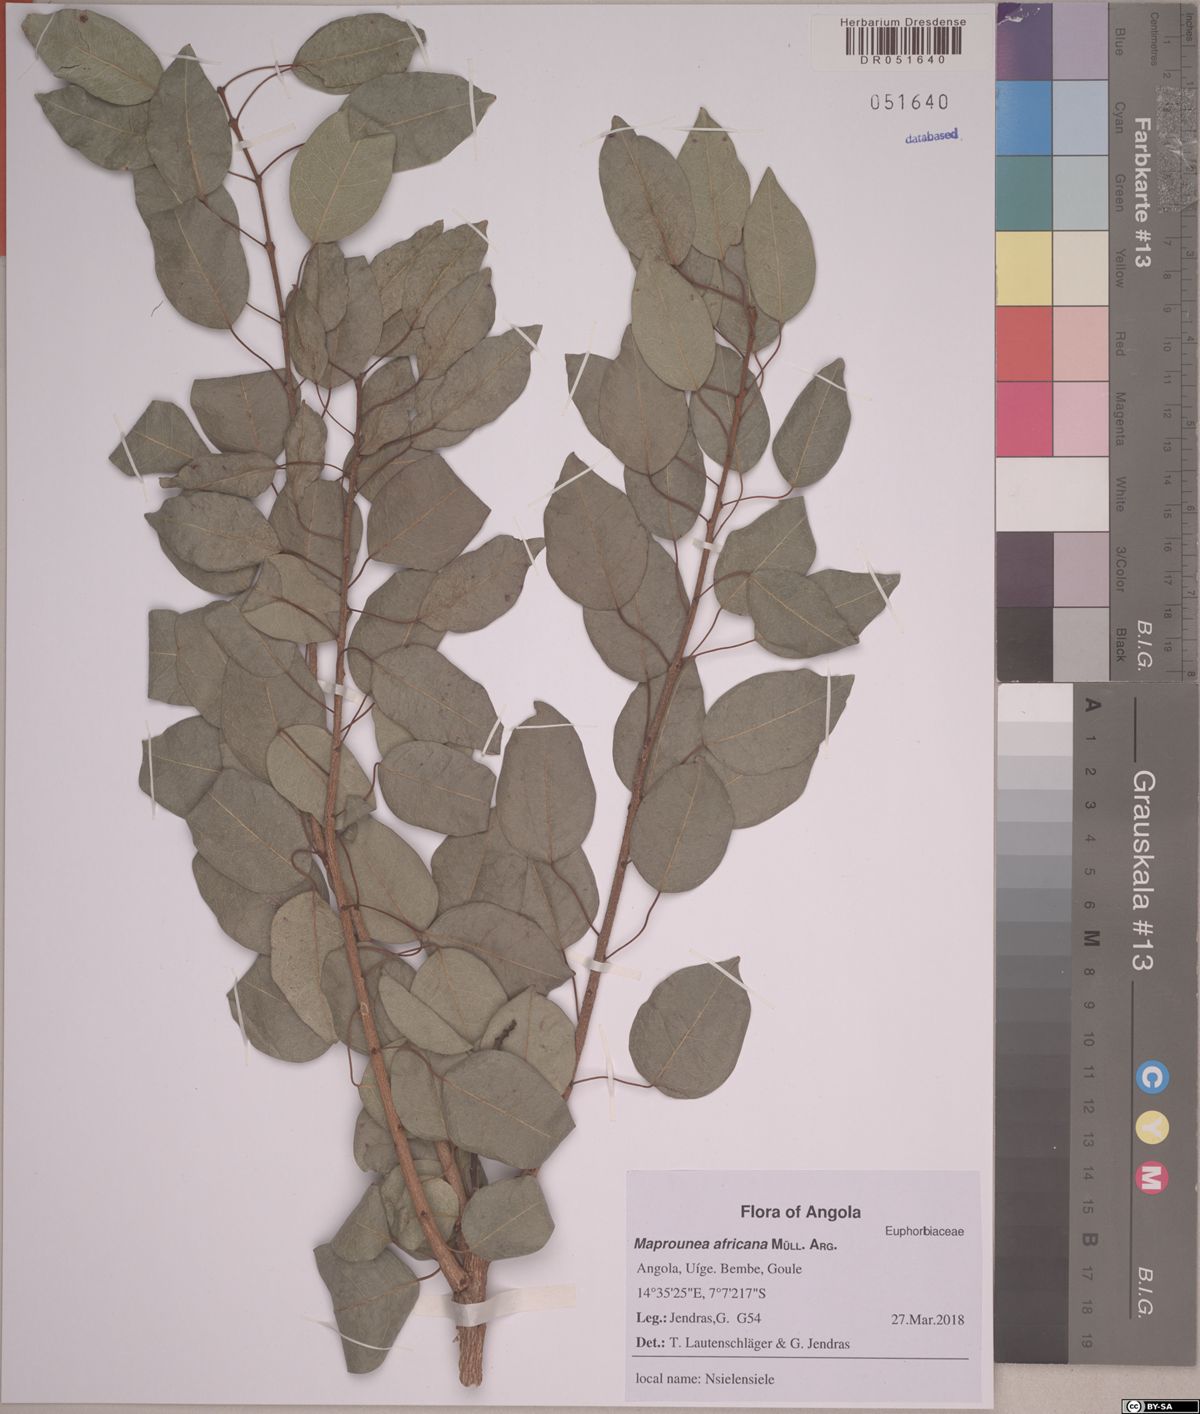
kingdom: Plantae
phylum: Tracheophyta
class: Magnoliopsida
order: Malpighiales
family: Euphorbiaceae
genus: Maprounea
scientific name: Maprounea africana
